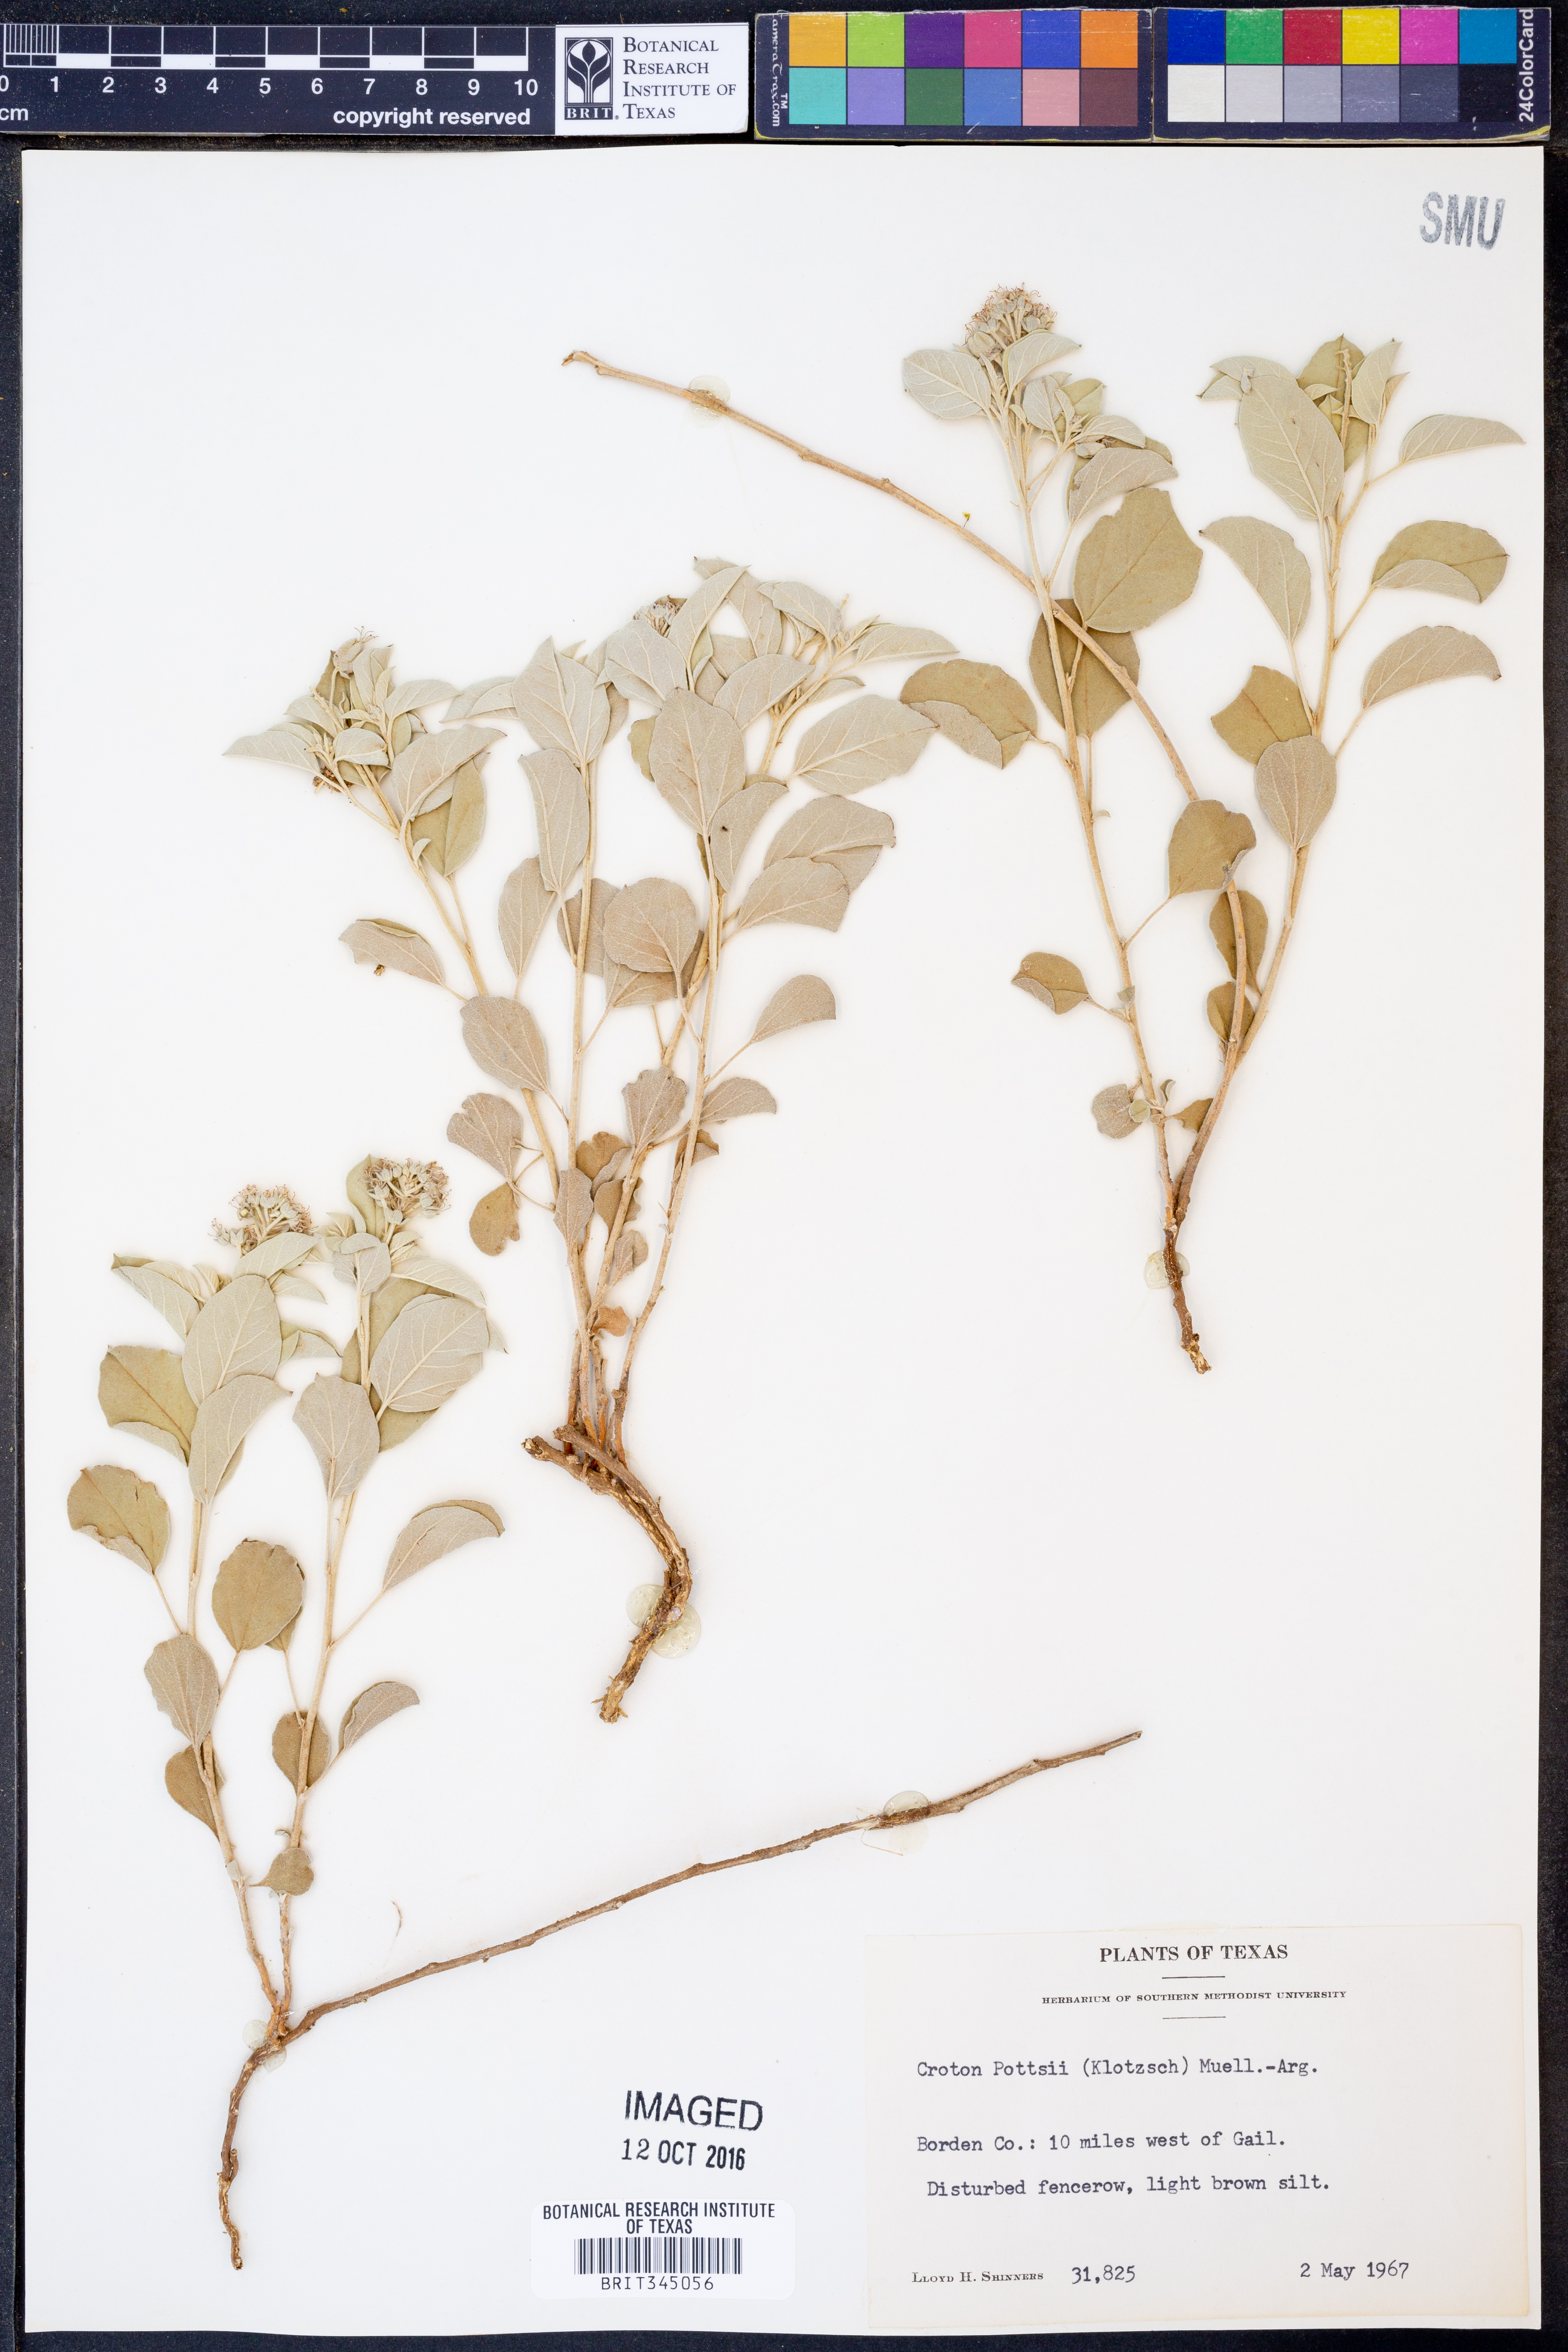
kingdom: Plantae
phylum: Tracheophyta
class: Magnoliopsida
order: Malpighiales
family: Euphorbiaceae
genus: Croton
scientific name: Croton pottsii
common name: Leatherweed
